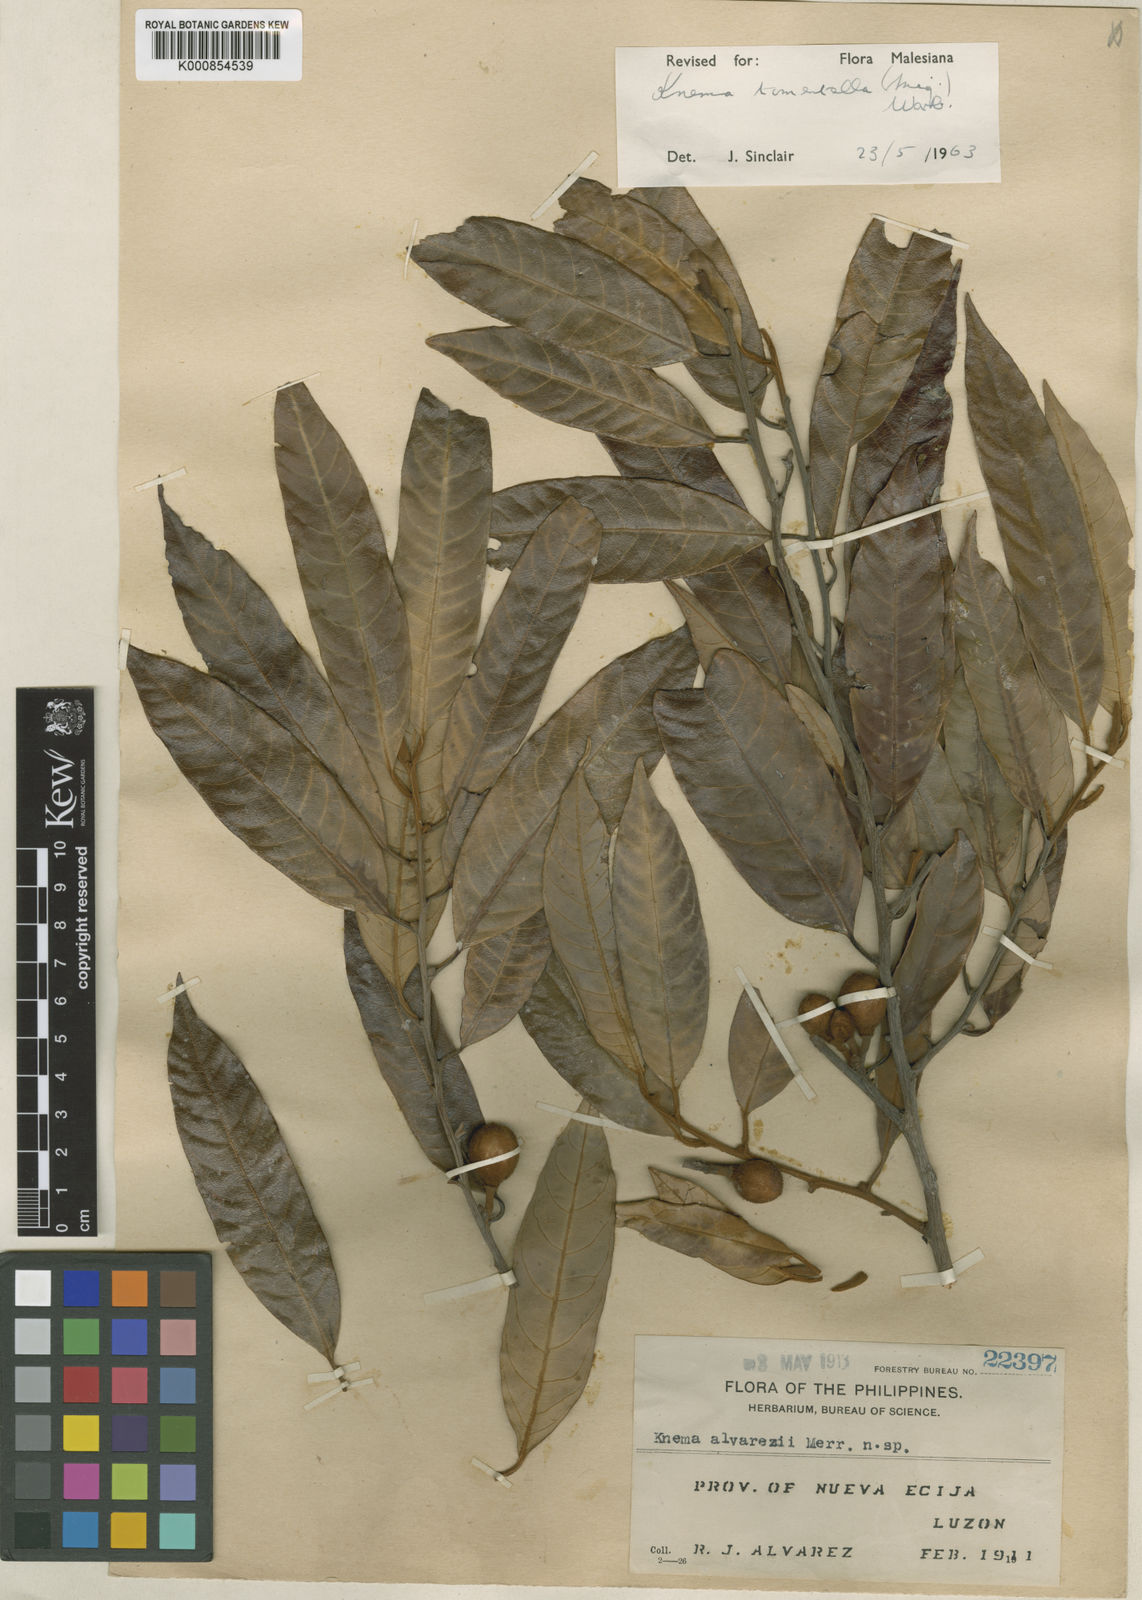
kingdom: Plantae
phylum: Tracheophyta
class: Magnoliopsida
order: Magnoliales
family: Myristicaceae
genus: Knema
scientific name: Knema tomentella
